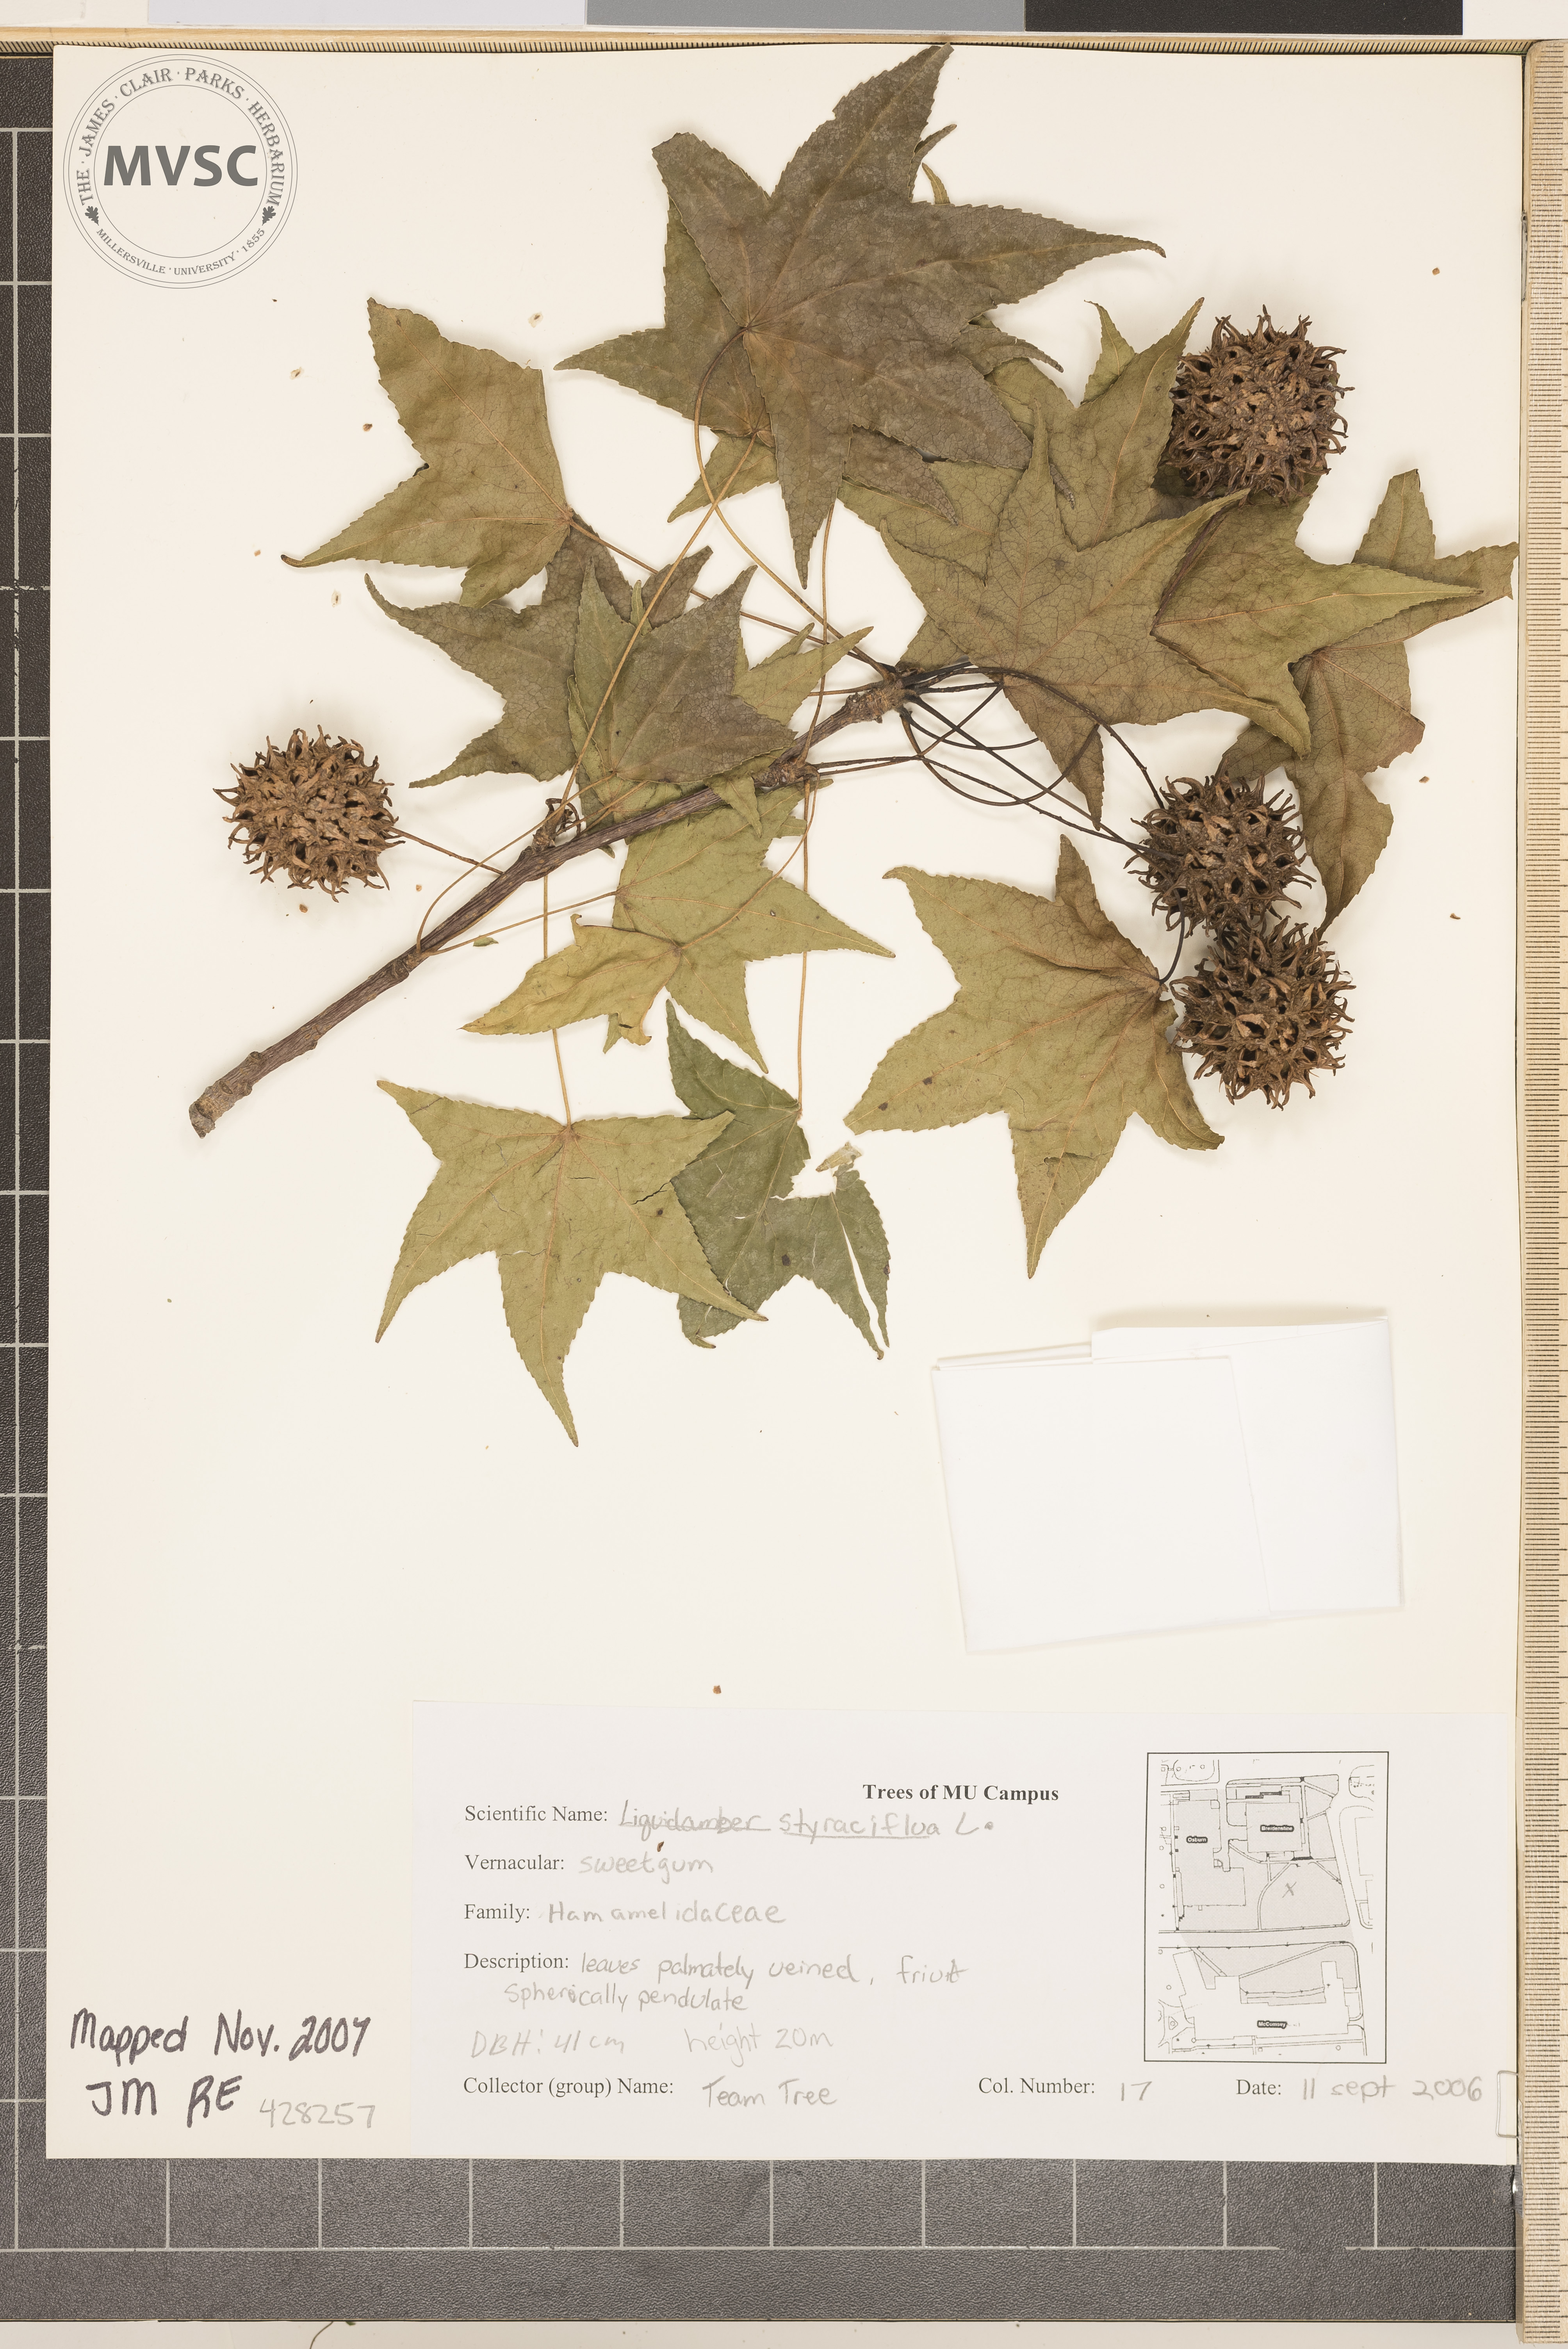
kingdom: Plantae
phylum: Tracheophyta
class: Magnoliopsida
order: Saxifragales
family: Altingiaceae
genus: Liquidambar
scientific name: Liquidambar styraciflua
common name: Sweetgum
